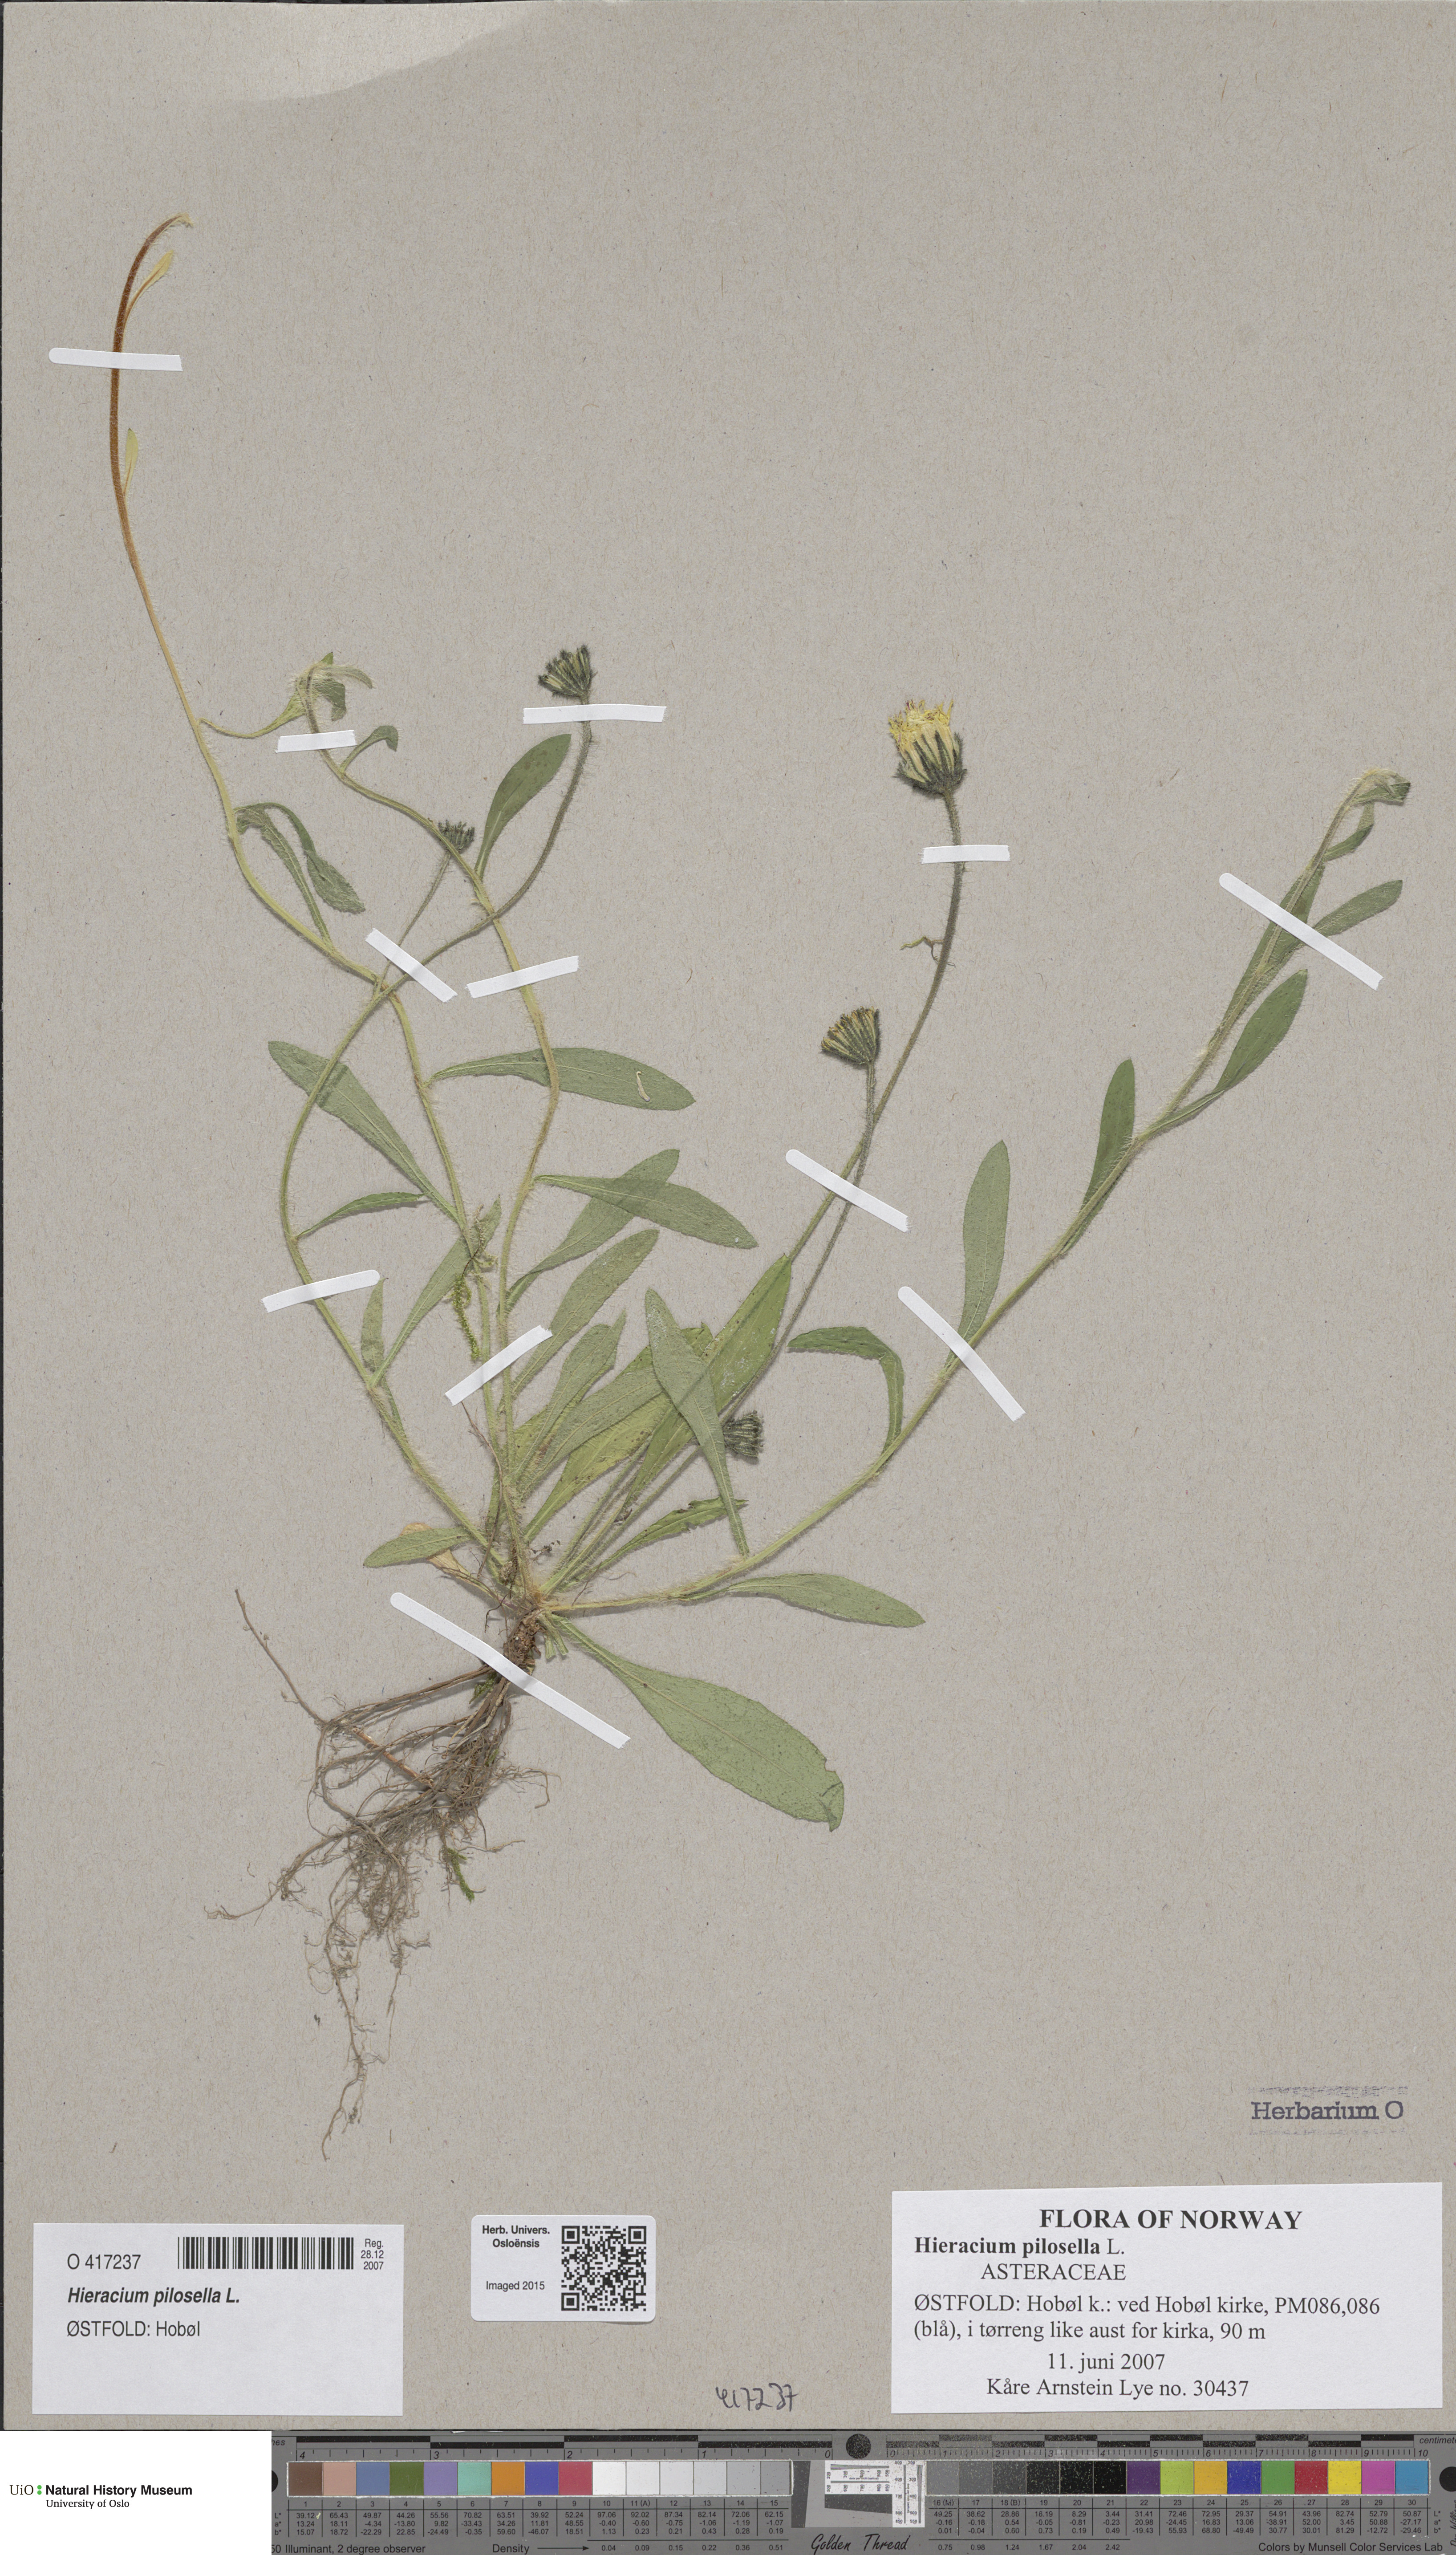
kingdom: Plantae
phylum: Tracheophyta
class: Magnoliopsida
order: Asterales
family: Asteraceae
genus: Pilosella
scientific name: Pilosella officinarum
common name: Mouse-ear hawkweed
